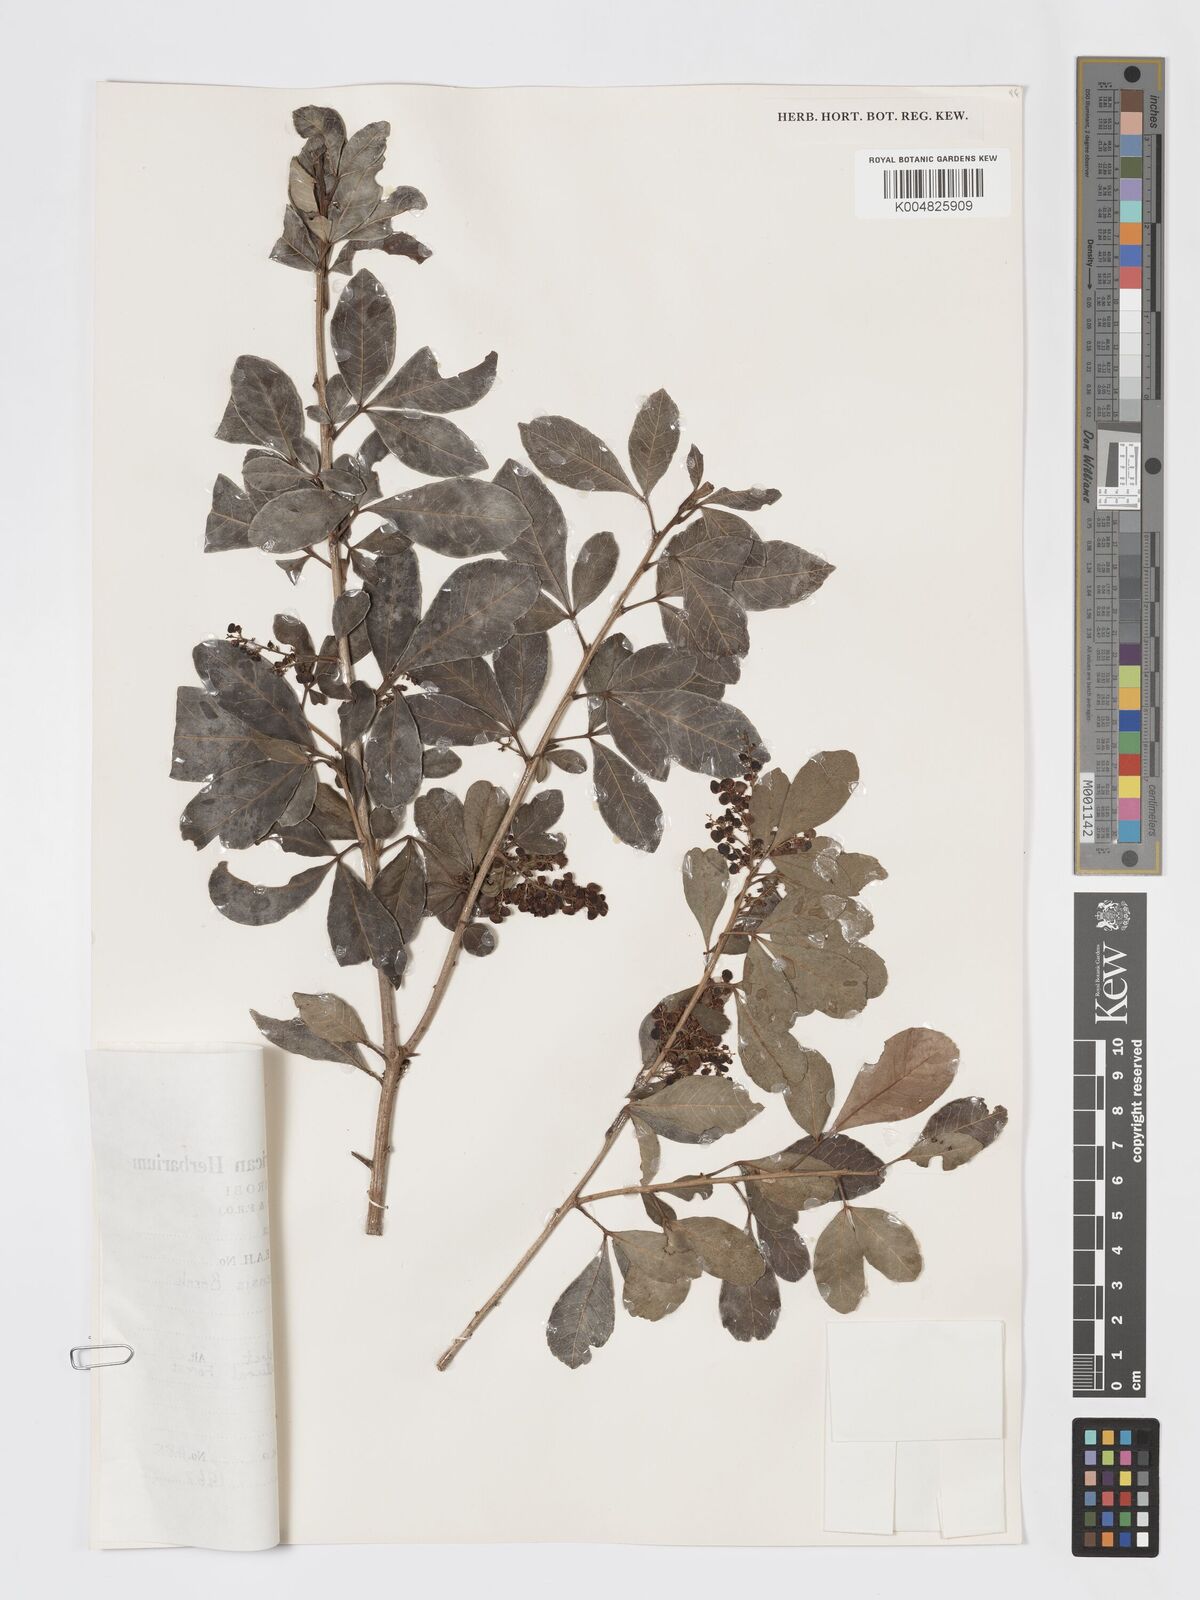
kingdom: Plantae
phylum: Tracheophyta
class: Magnoliopsida
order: Sapindales
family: Anacardiaceae
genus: Searsia
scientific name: Searsia natalensis
